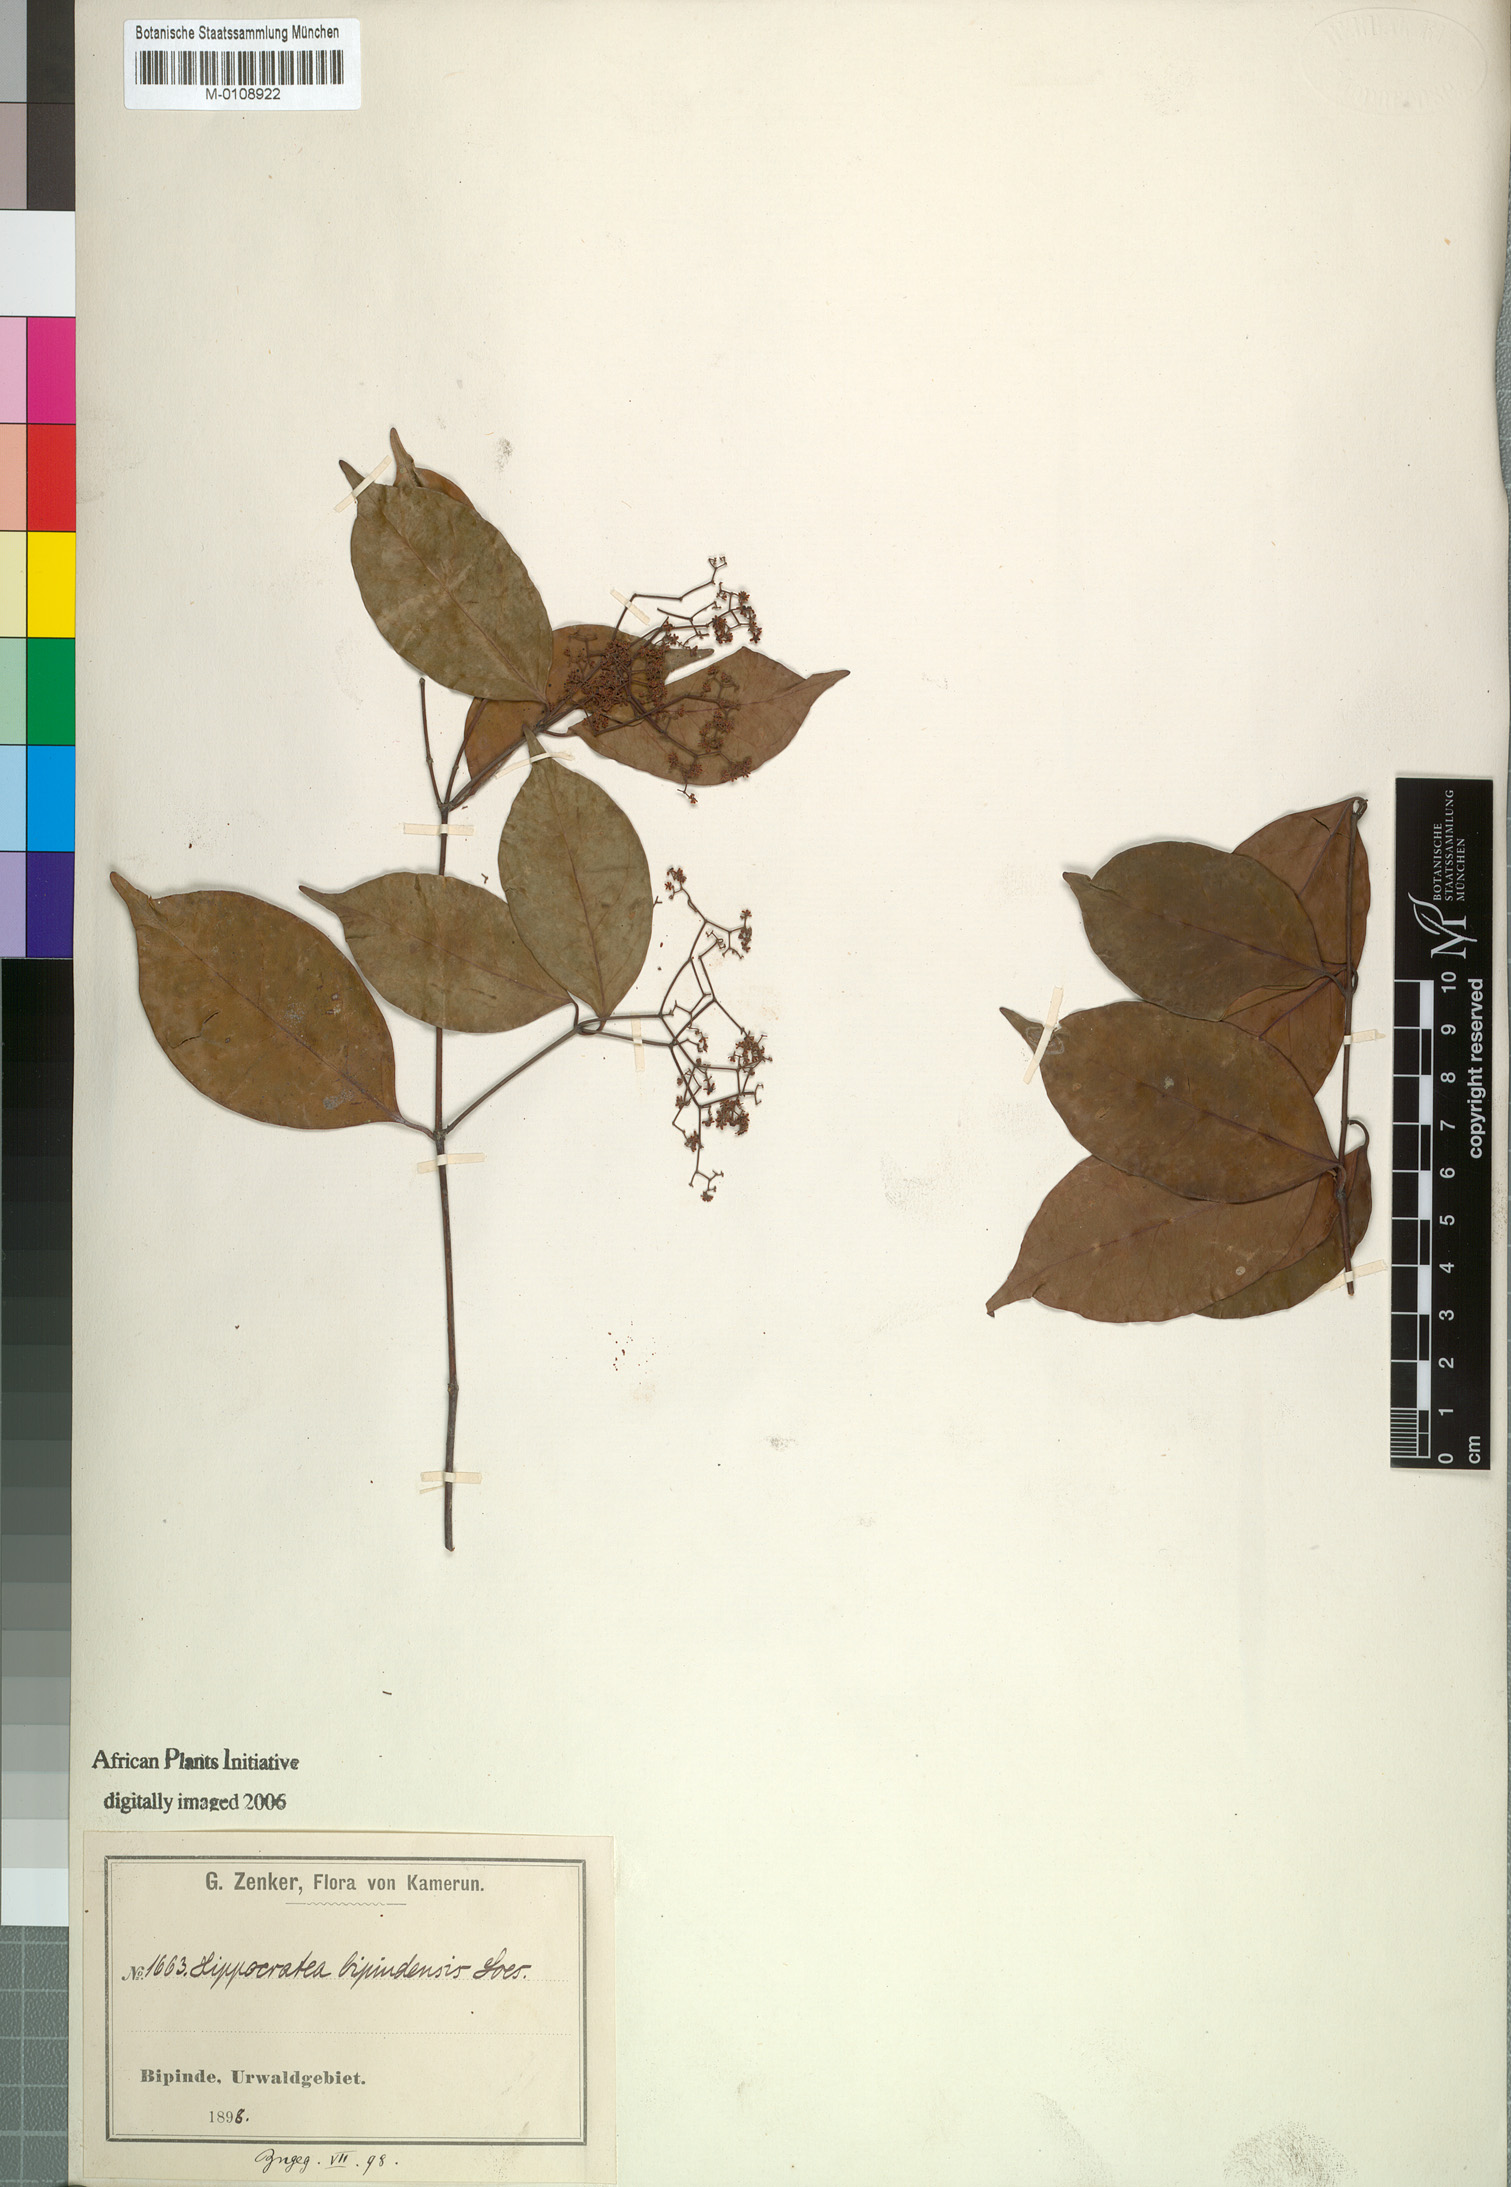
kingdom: Plantae
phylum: Tracheophyta
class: Magnoliopsida
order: Celastrales
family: Celastraceae
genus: Elachyptera
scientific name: Elachyptera bipindensis
